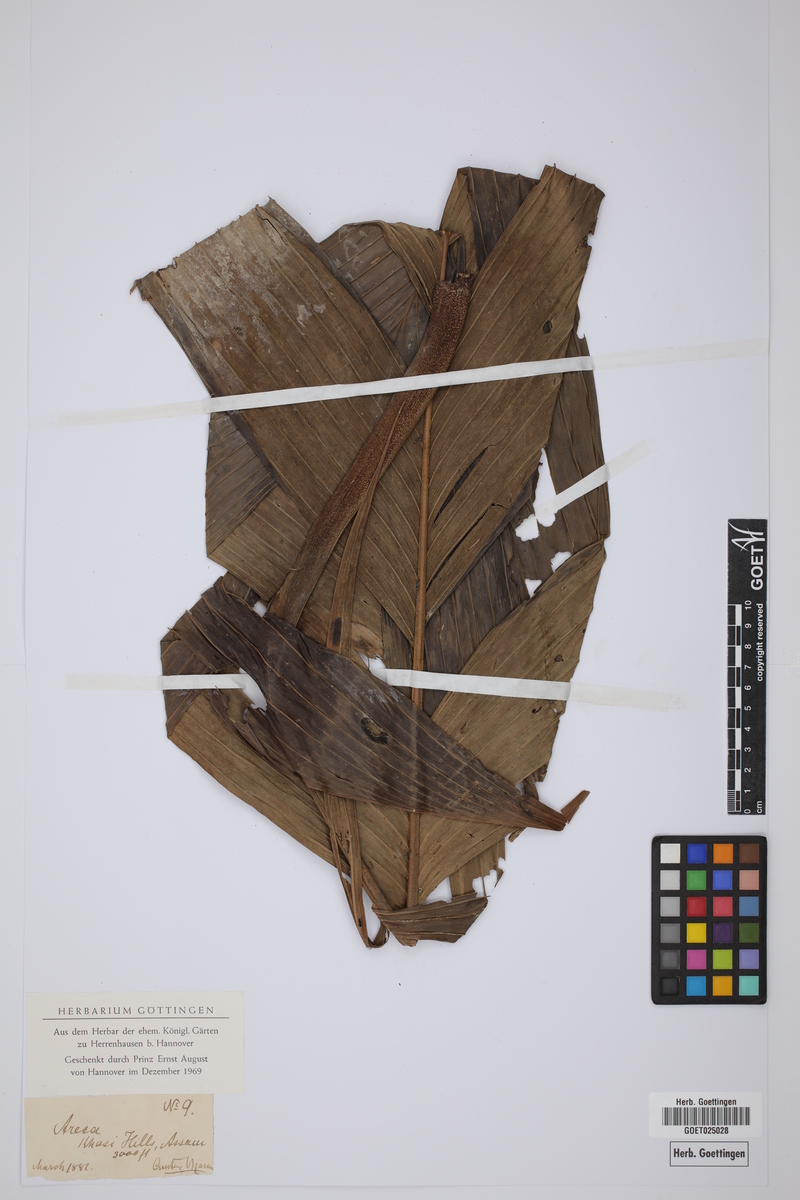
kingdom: Plantae
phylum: Tracheophyta
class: Liliopsida
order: Arecales
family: Arecaceae
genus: Areca
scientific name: Areca
